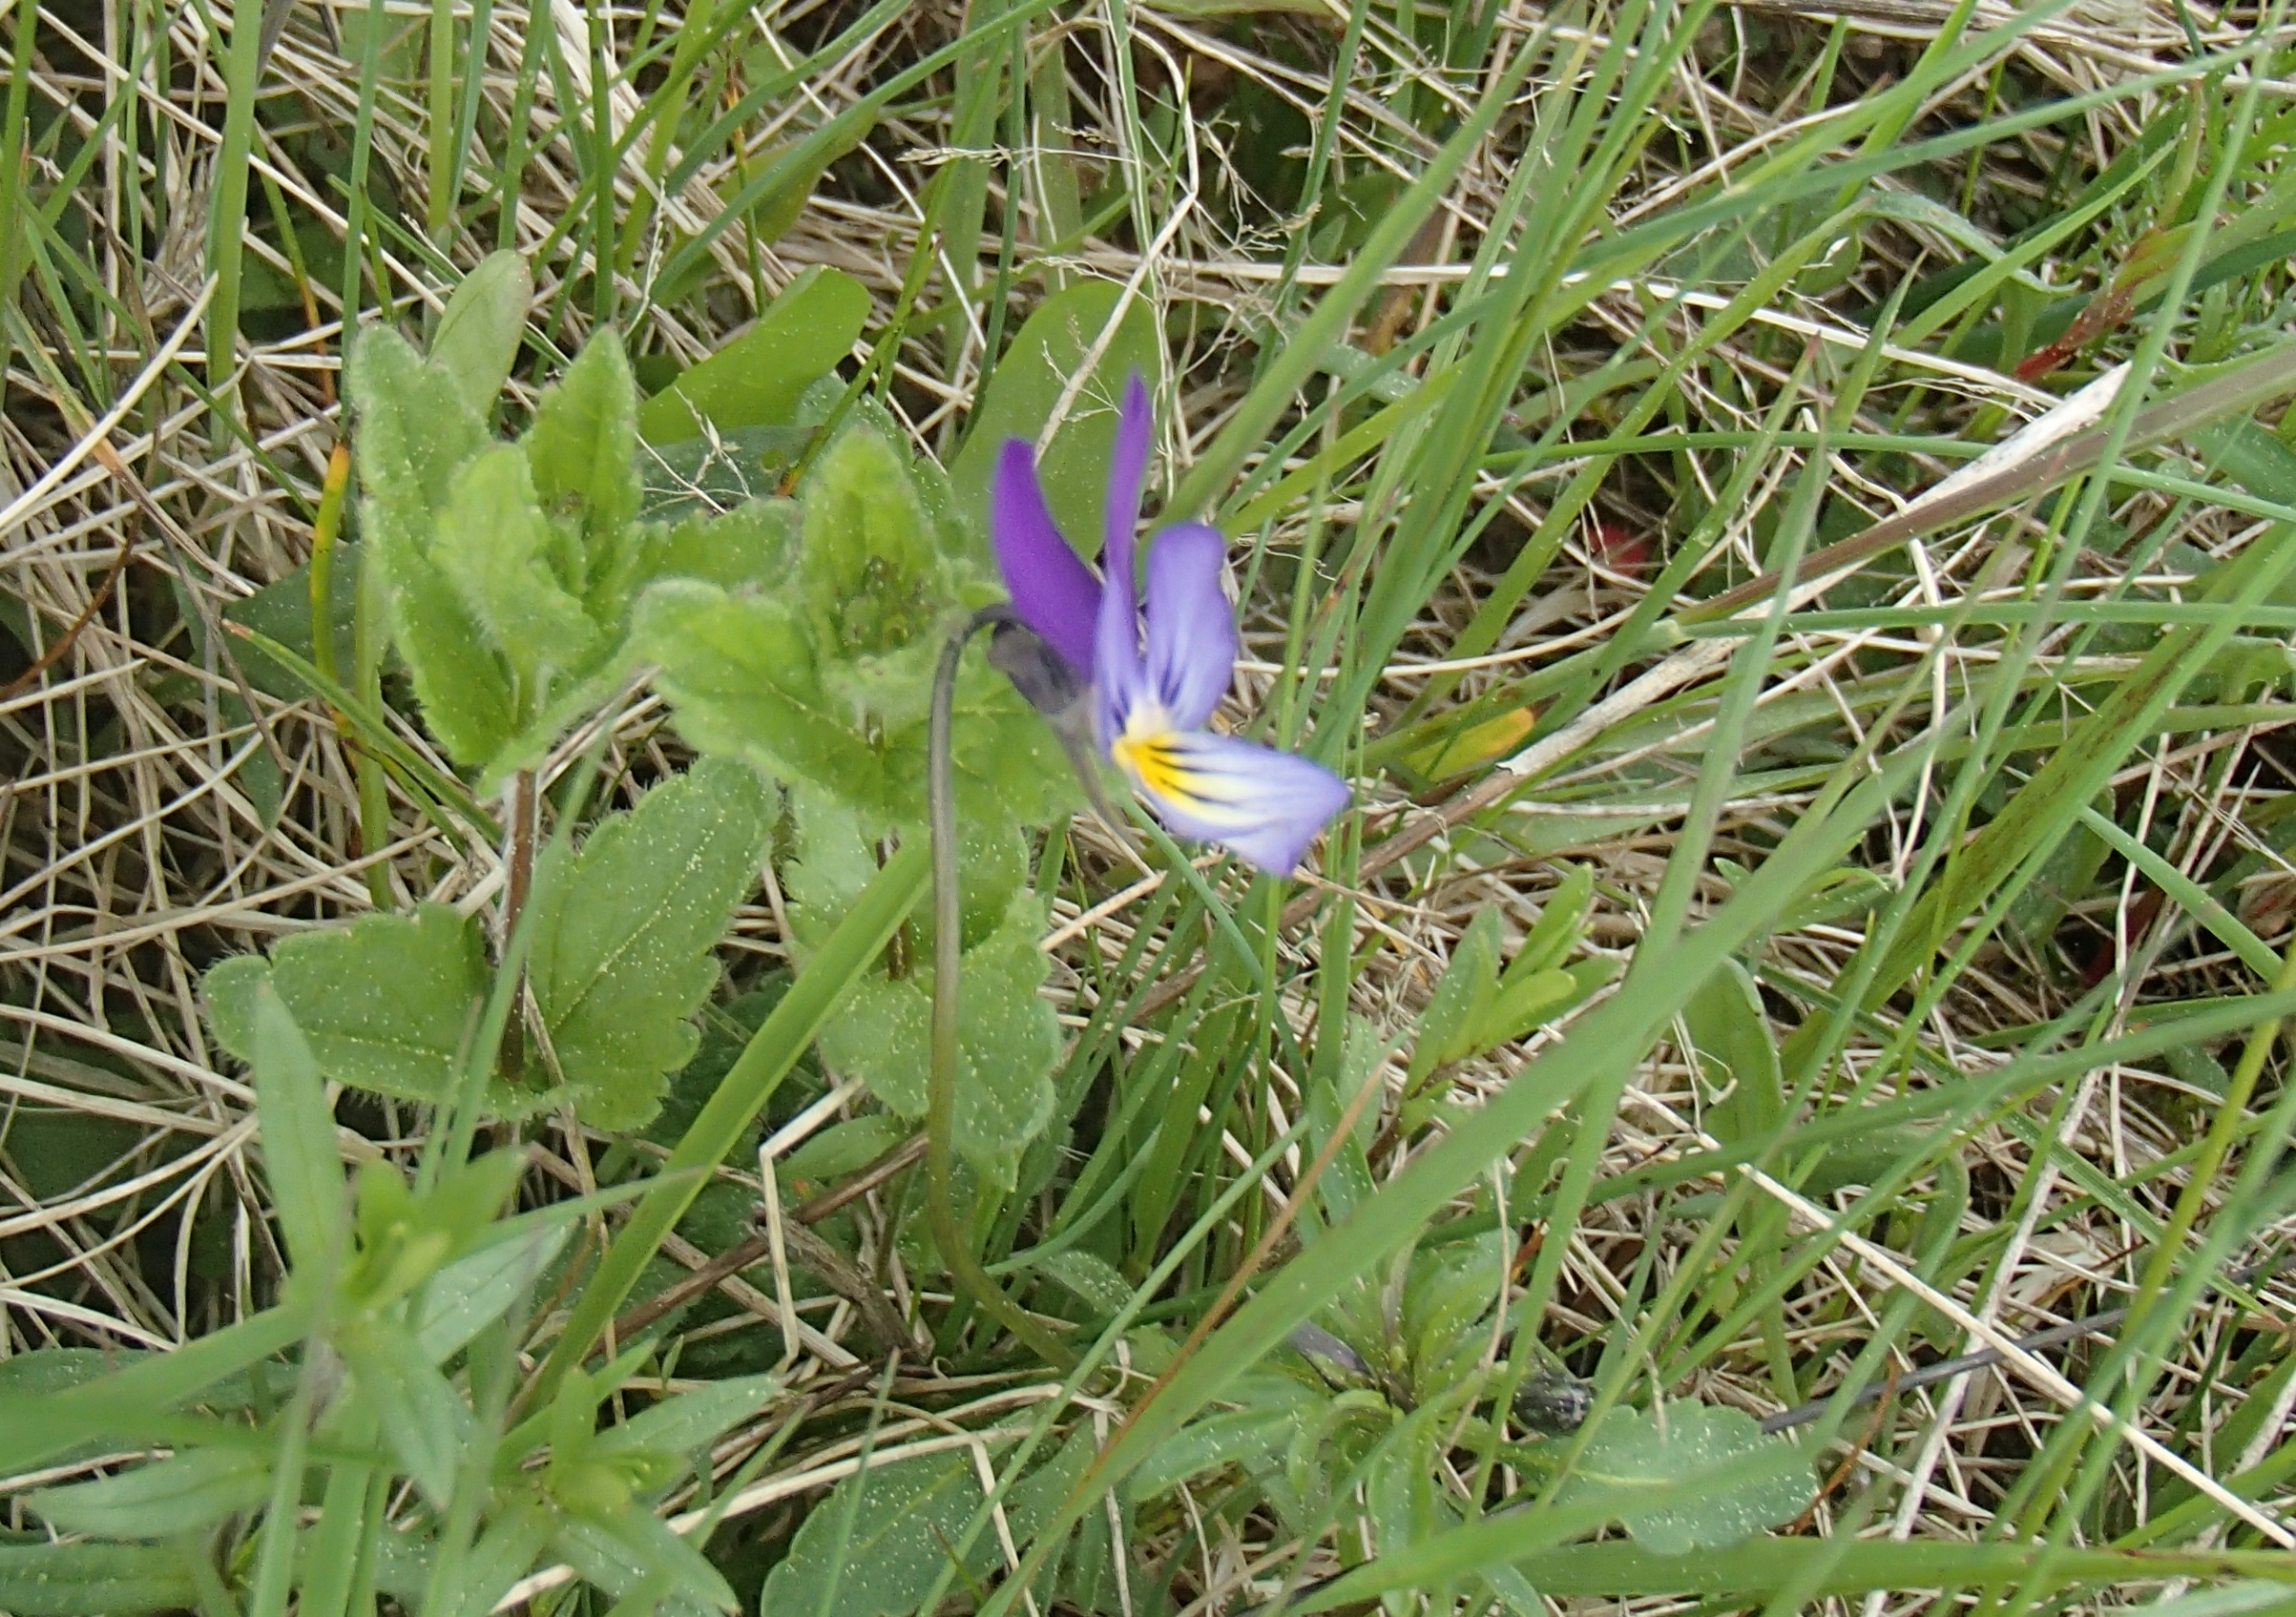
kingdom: Plantae
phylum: Tracheophyta
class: Magnoliopsida
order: Malpighiales
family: Violaceae
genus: Viola
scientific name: Viola tricolor
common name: Stedmoderblomst
